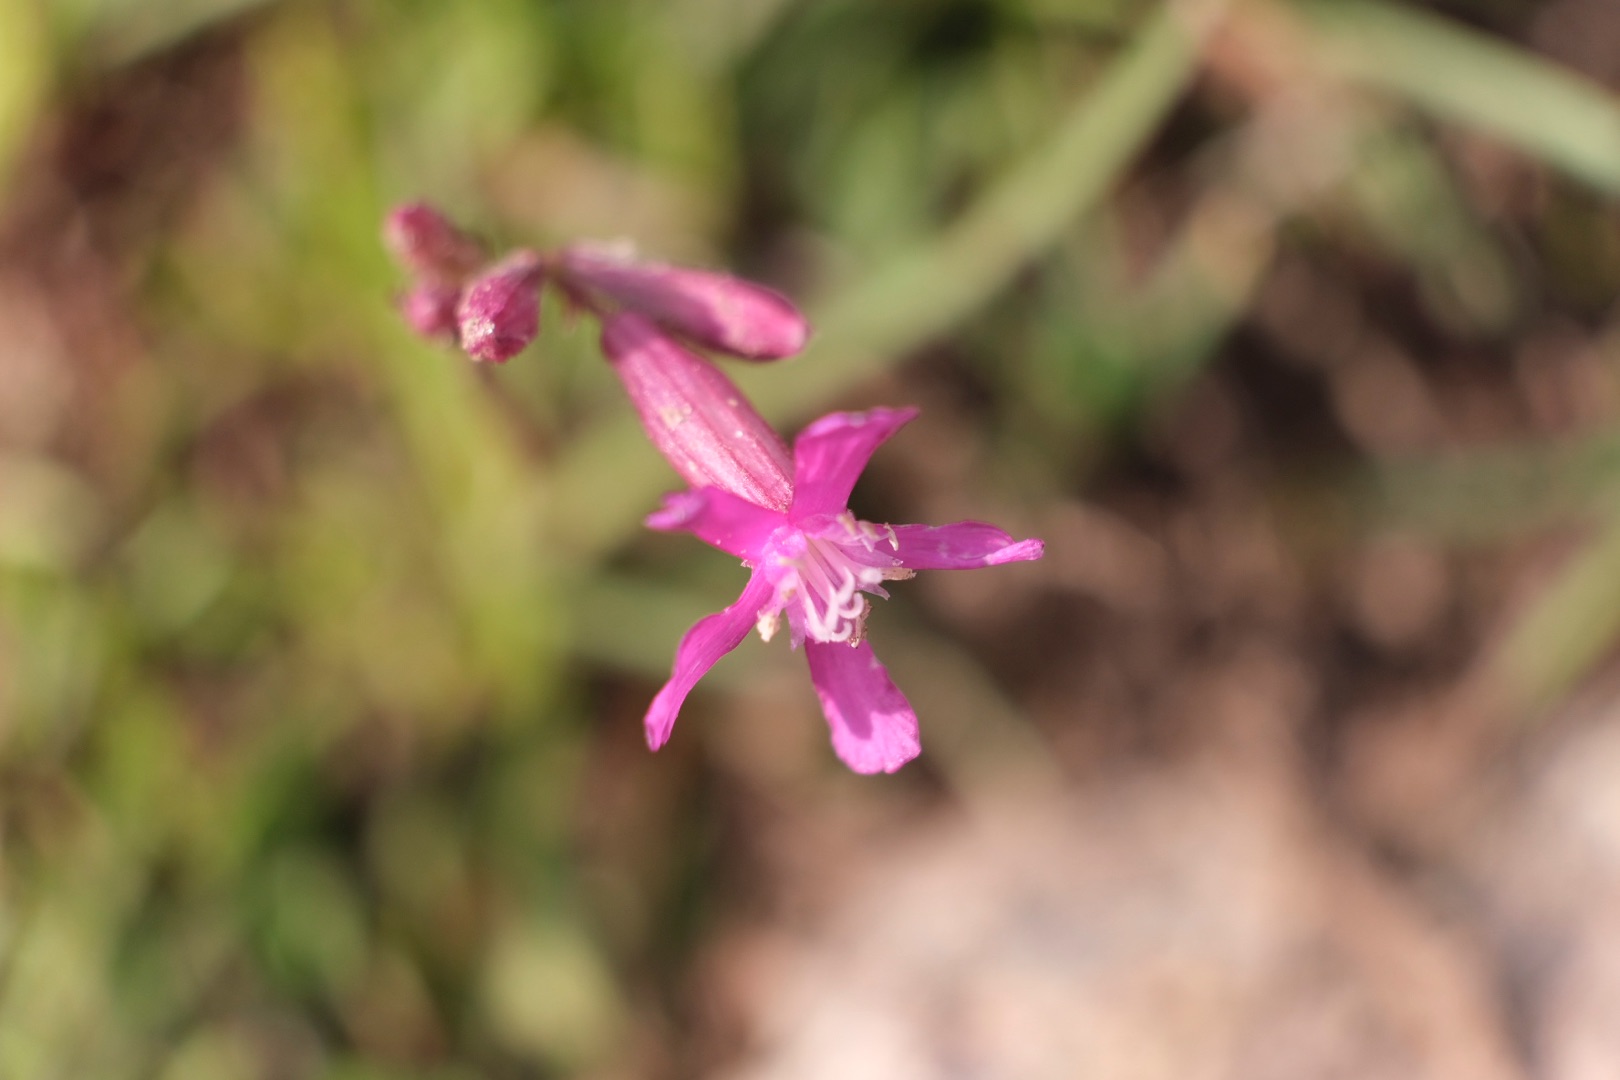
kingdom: Plantae
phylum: Tracheophyta
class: Magnoliopsida
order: Caryophyllales
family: Caryophyllaceae
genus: Viscaria
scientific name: Viscaria vulgaris
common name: Tjærenellike
